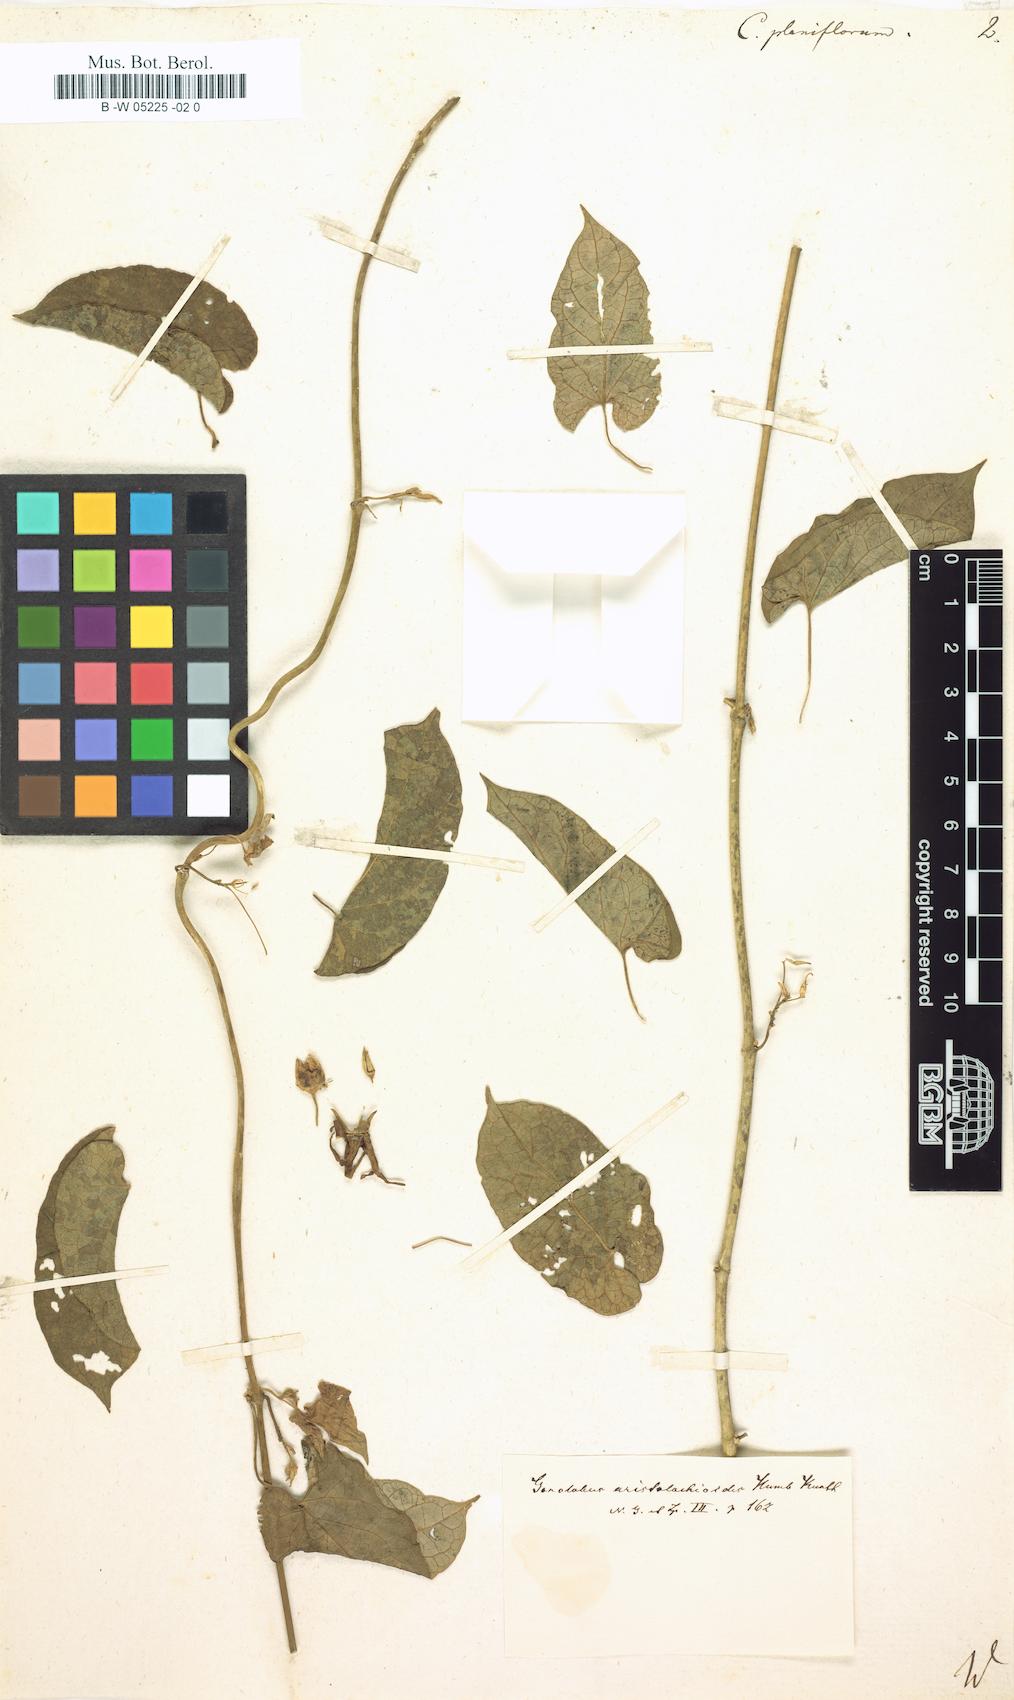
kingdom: Plantae
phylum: Tracheophyta
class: Magnoliopsida
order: Gentianales
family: Apocynaceae
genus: Atrostemma
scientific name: Atrostemma planiflorum
